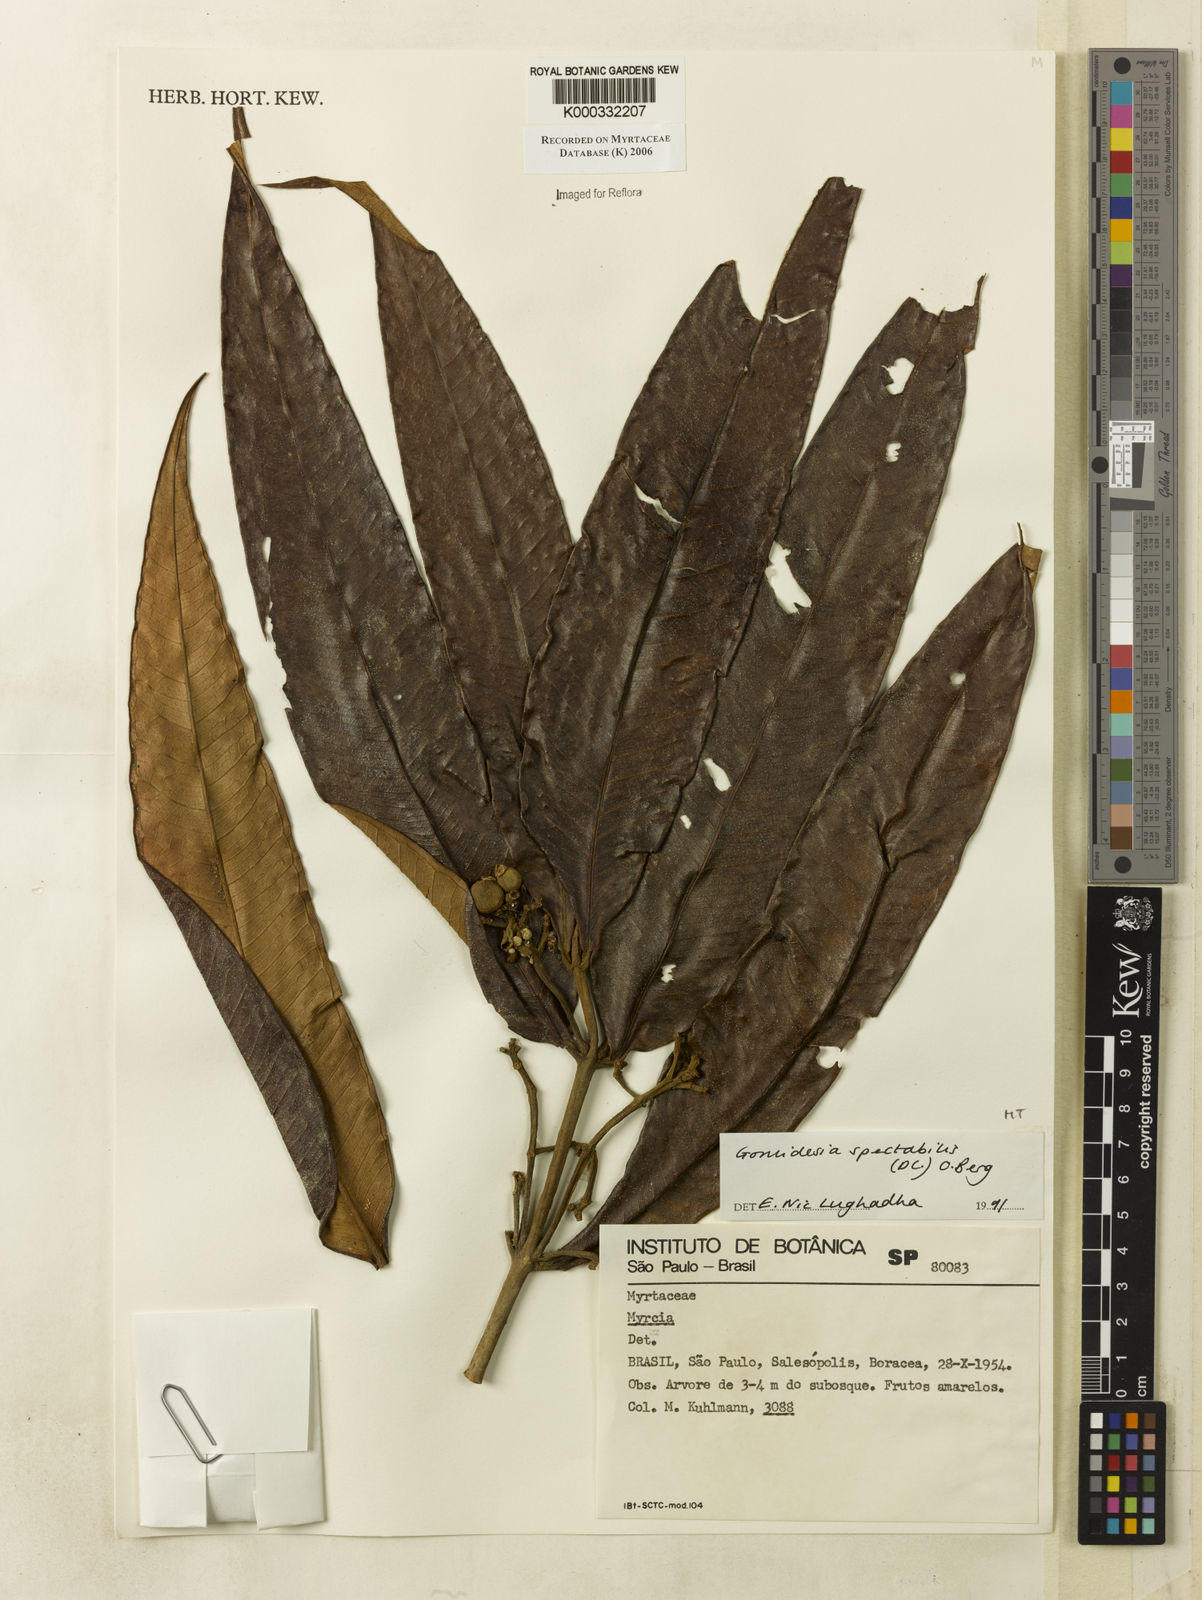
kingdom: Plantae
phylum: Tracheophyta
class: Magnoliopsida
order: Myrtales
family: Myrtaceae
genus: Myrcia
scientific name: Myrcia spectabilis
